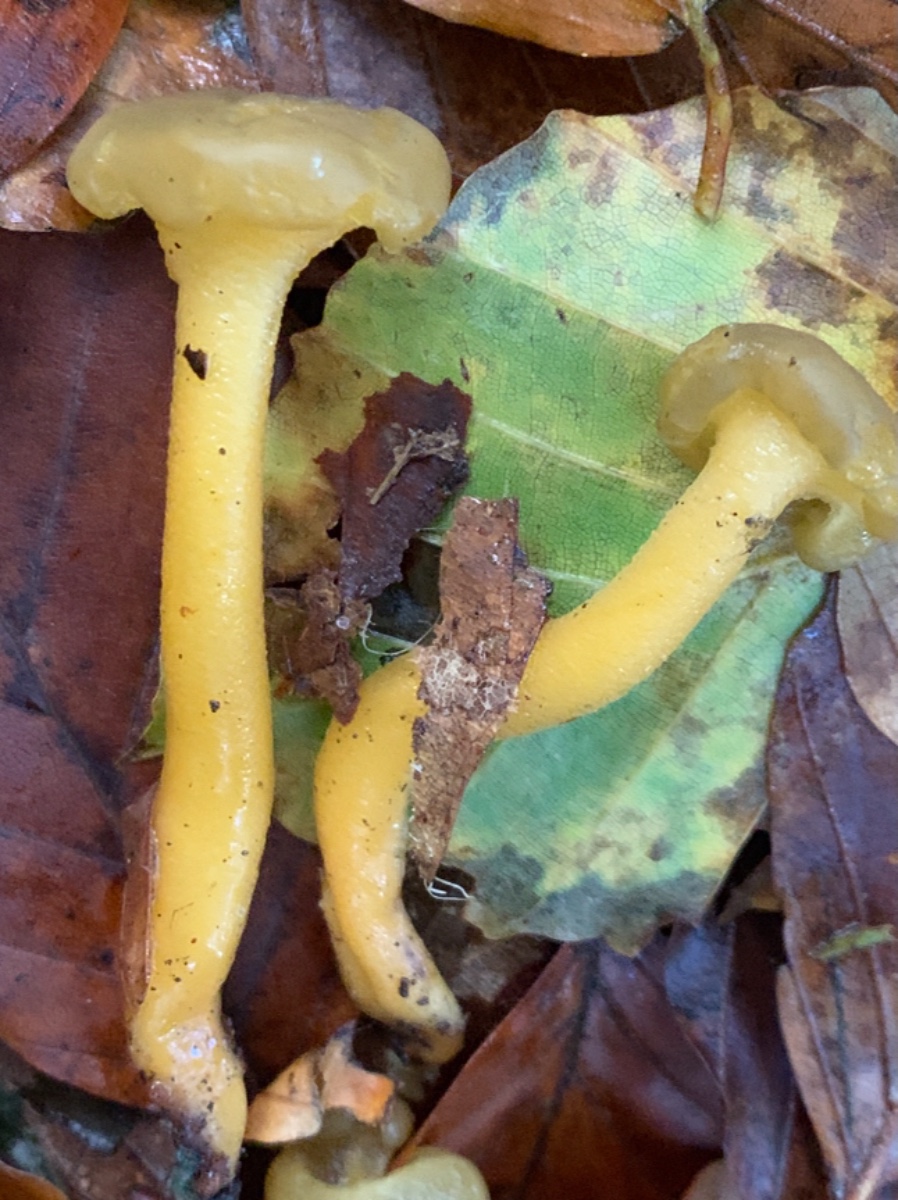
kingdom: Fungi
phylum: Ascomycota
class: Leotiomycetes
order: Leotiales
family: Leotiaceae
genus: Leotia
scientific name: Leotia lubrica
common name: ravsvamp
